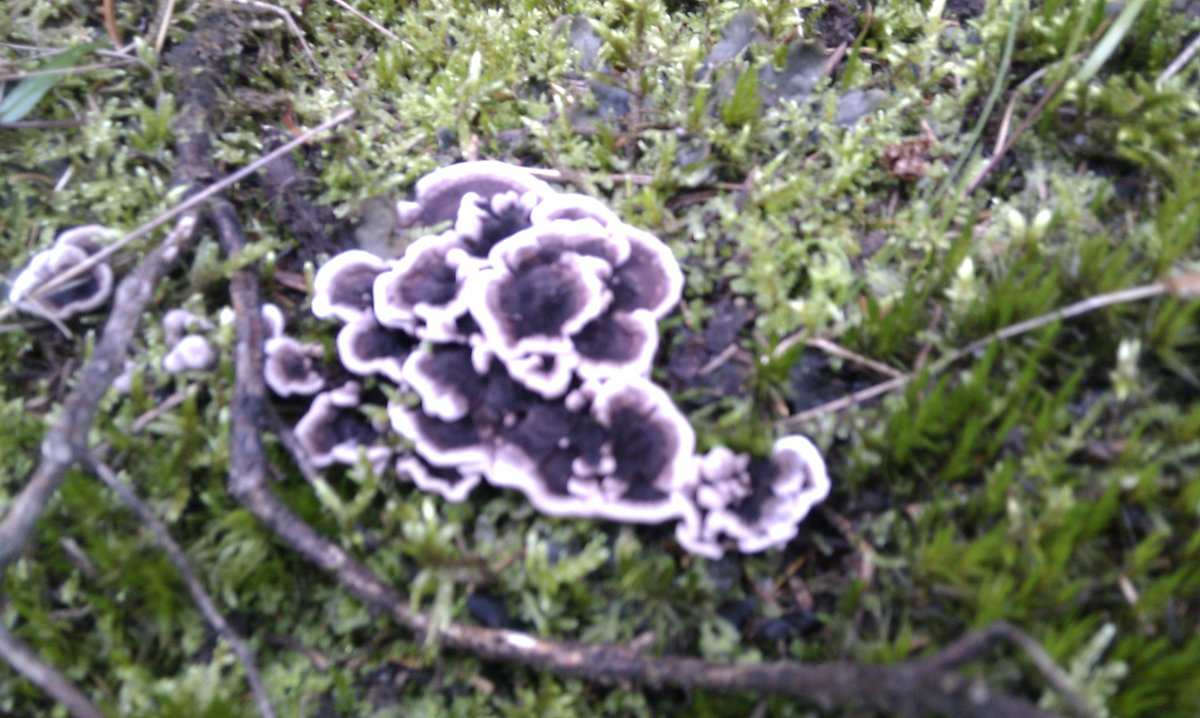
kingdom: Fungi
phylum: Basidiomycota
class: Agaricomycetes
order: Thelephorales
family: Thelephoraceae
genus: Phellodon
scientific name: Phellodon tomentosus
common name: vellugtende duftpigsvamp
